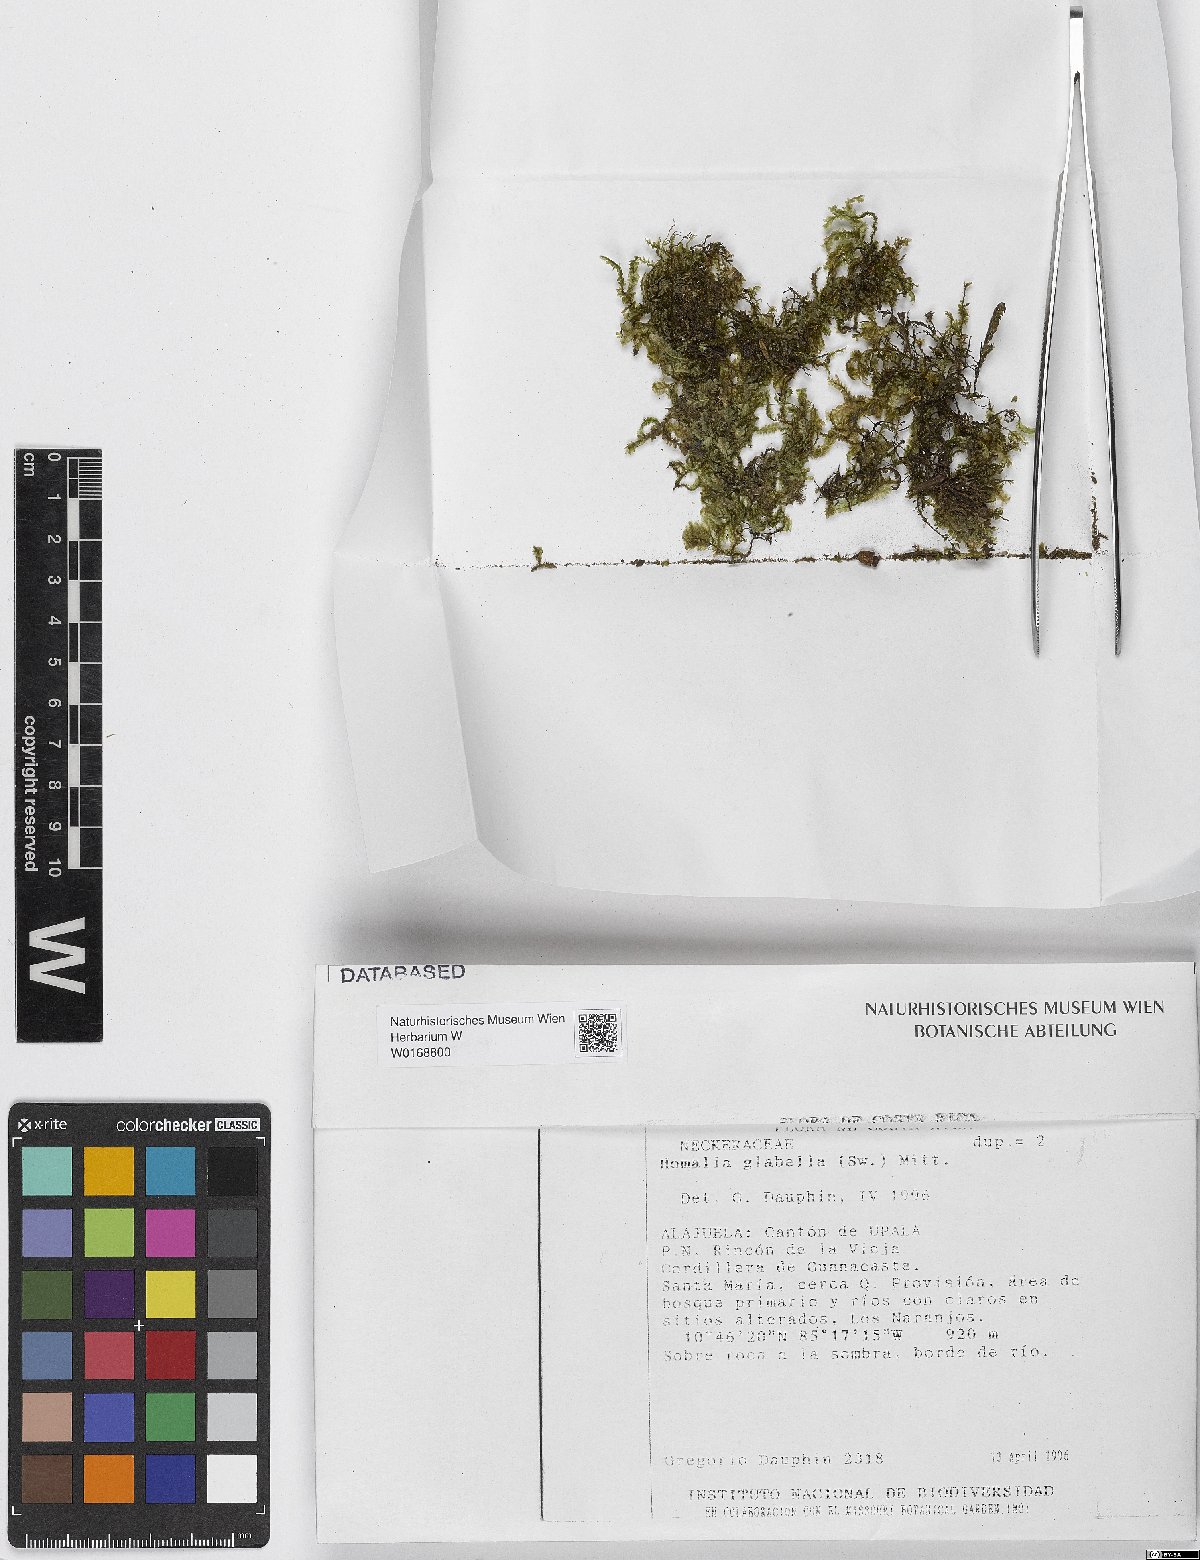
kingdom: Plantae
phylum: Bryophyta
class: Bryopsida
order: Hypnales
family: Neckeraceae
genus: Homalia
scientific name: Homalia
